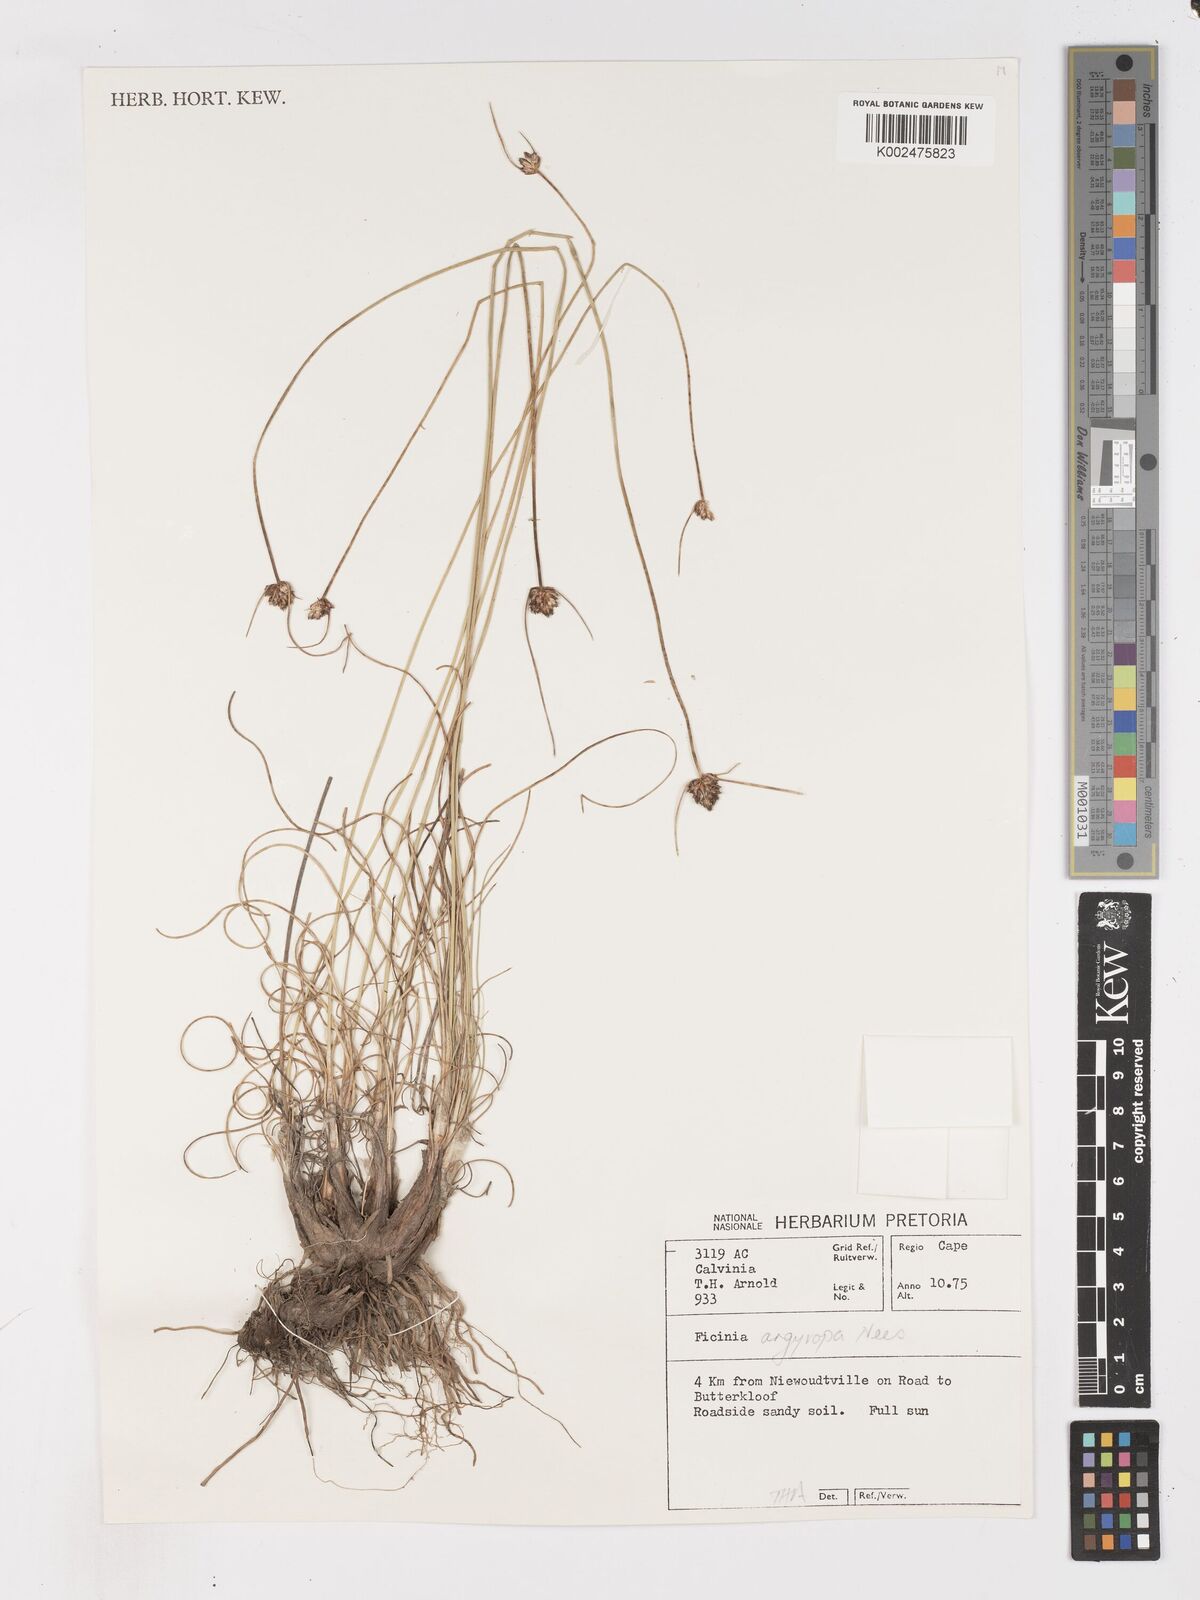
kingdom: Plantae
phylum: Tracheophyta
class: Liliopsida
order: Poales
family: Cyperaceae
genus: Ficinia
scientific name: Ficinia argyropus
